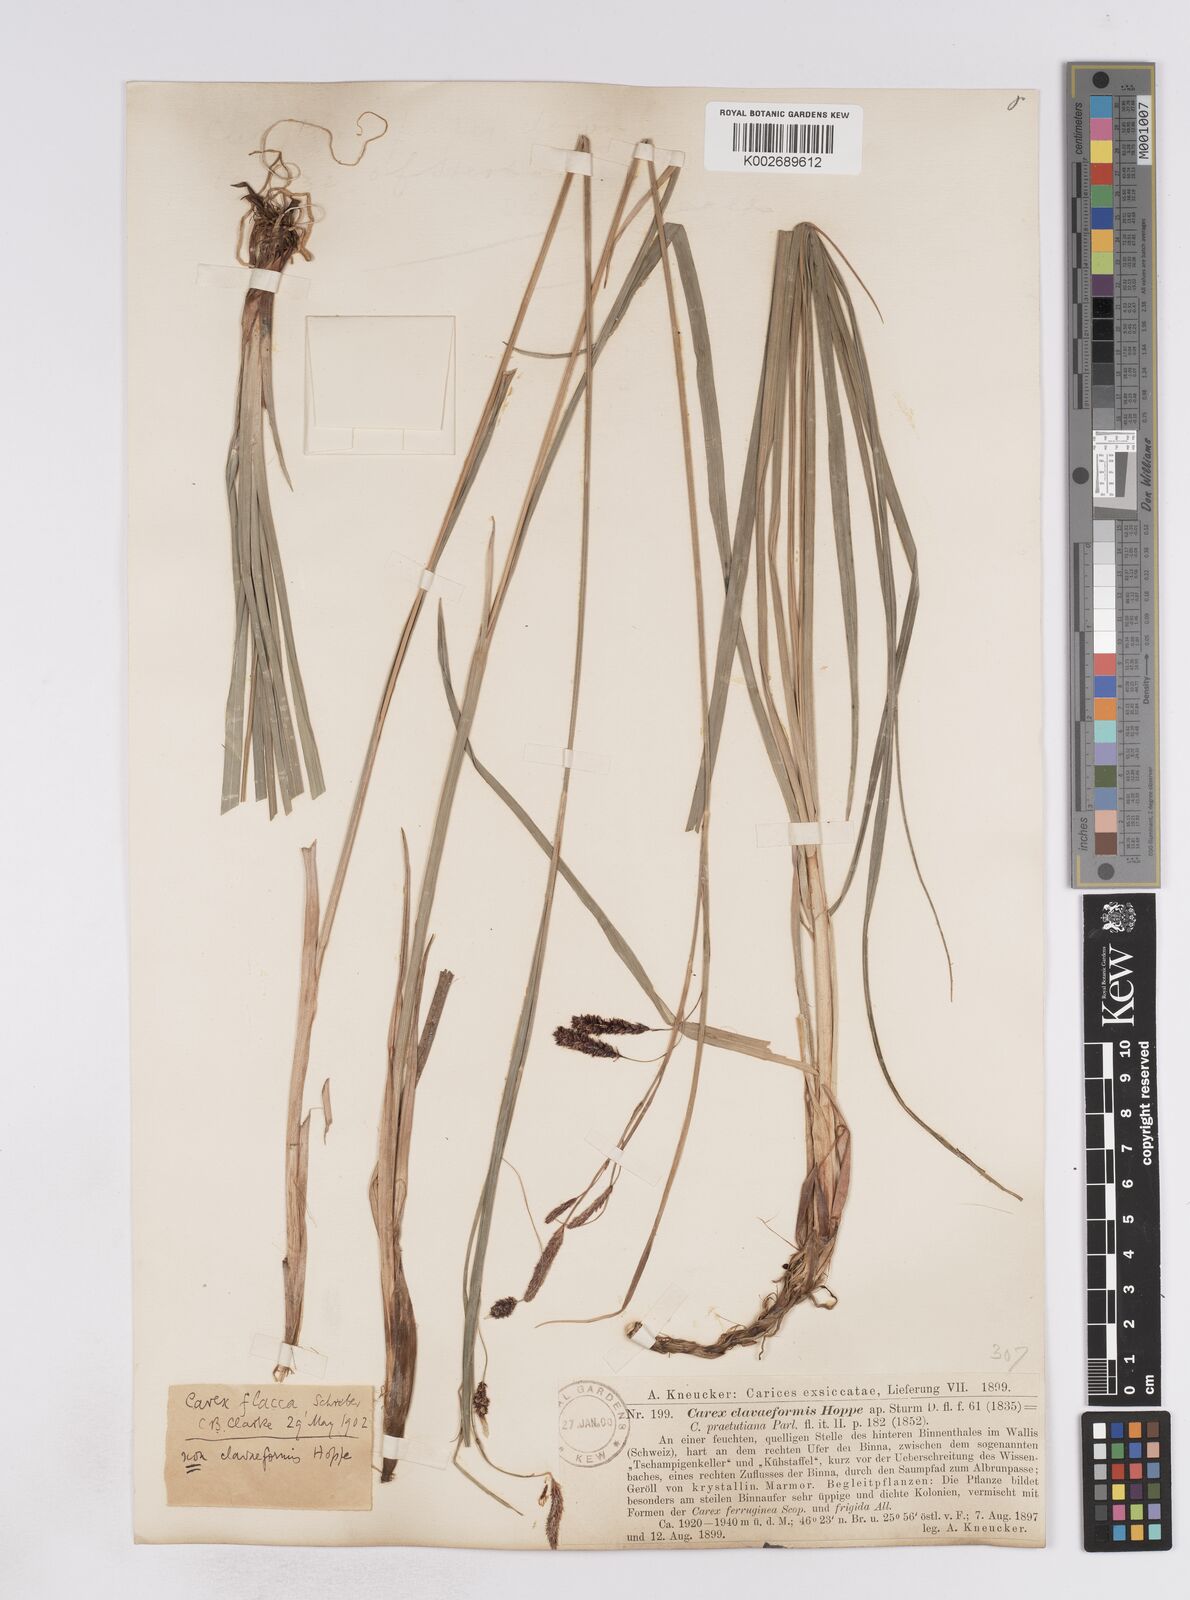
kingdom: Plantae
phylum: Tracheophyta
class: Liliopsida
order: Poales
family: Cyperaceae
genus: Carex
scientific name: Carex flacca
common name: Glaucous sedge
